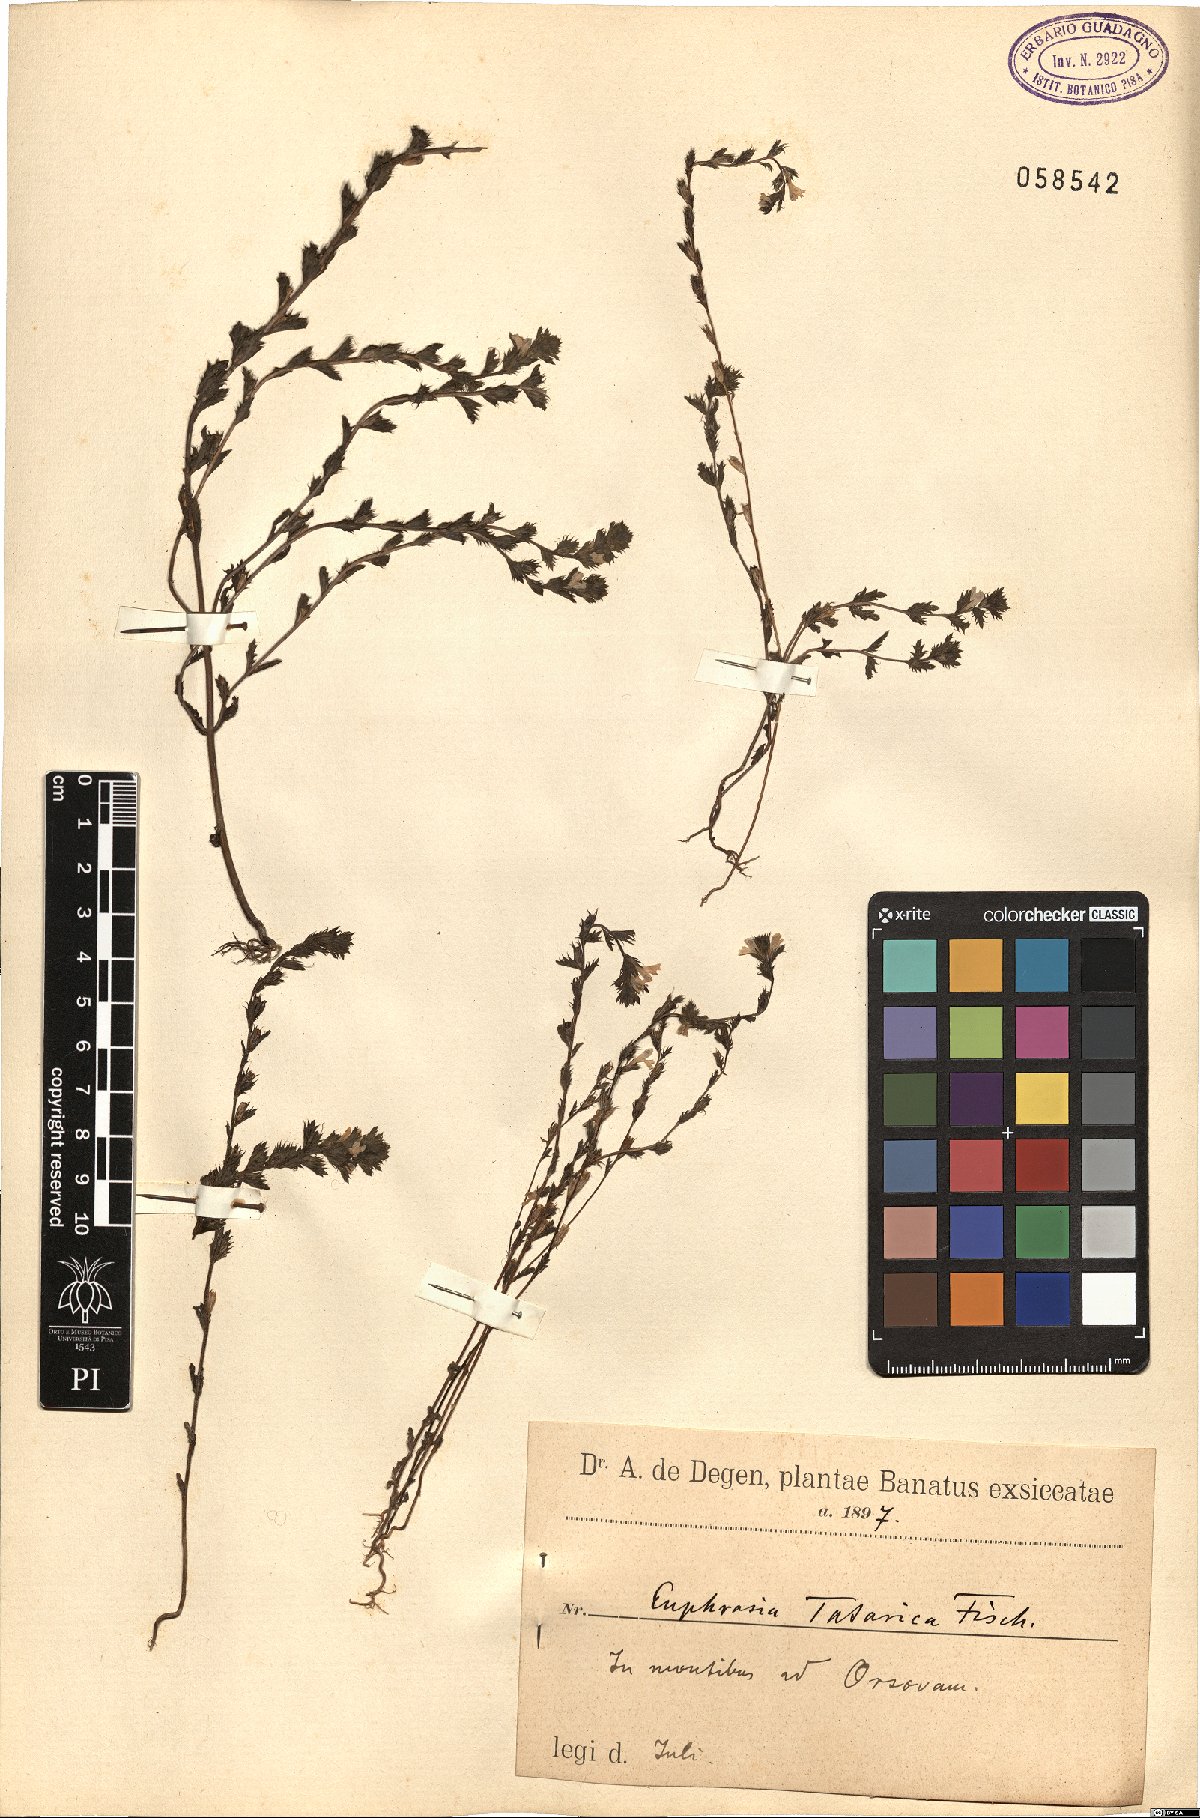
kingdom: Plantae
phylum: Tracheophyta
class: Magnoliopsida
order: Lamiales
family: Orobanchaceae
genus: Euphrasia
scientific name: Euphrasia taurica
